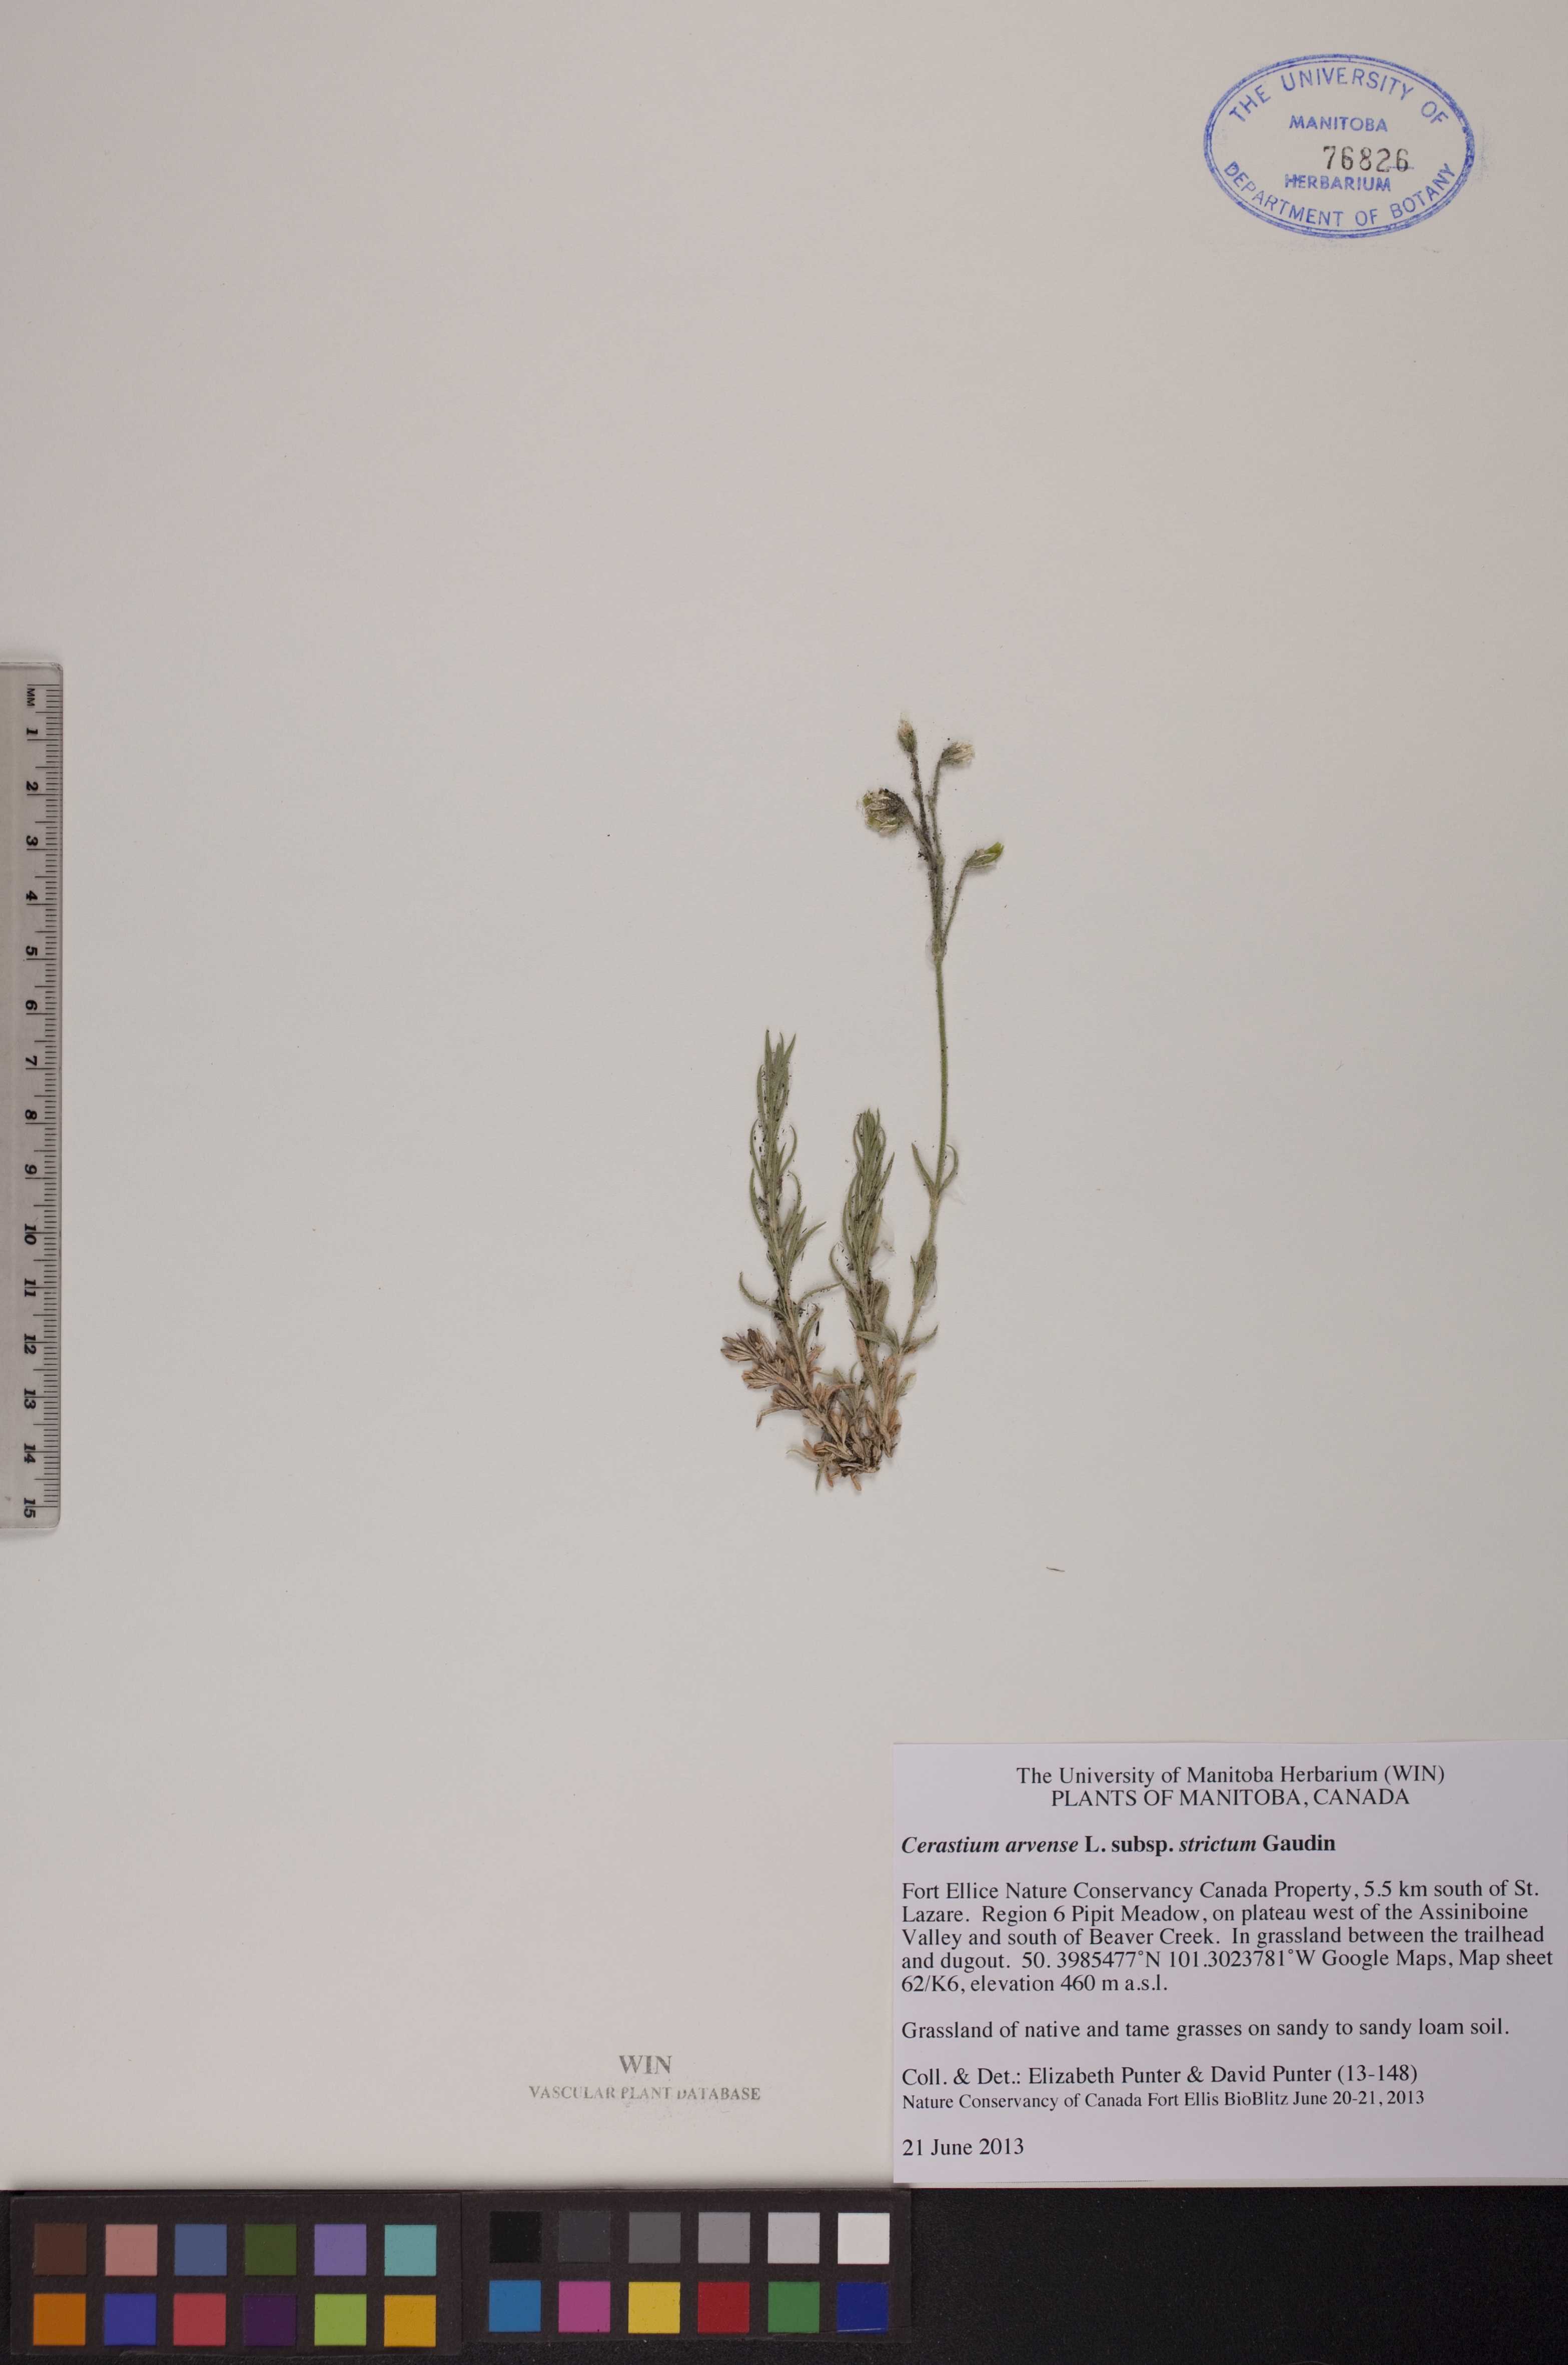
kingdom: Plantae
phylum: Tracheophyta
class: Magnoliopsida
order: Caryophyllales
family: Caryophyllaceae
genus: Cerastium
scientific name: Cerastium elongatum
